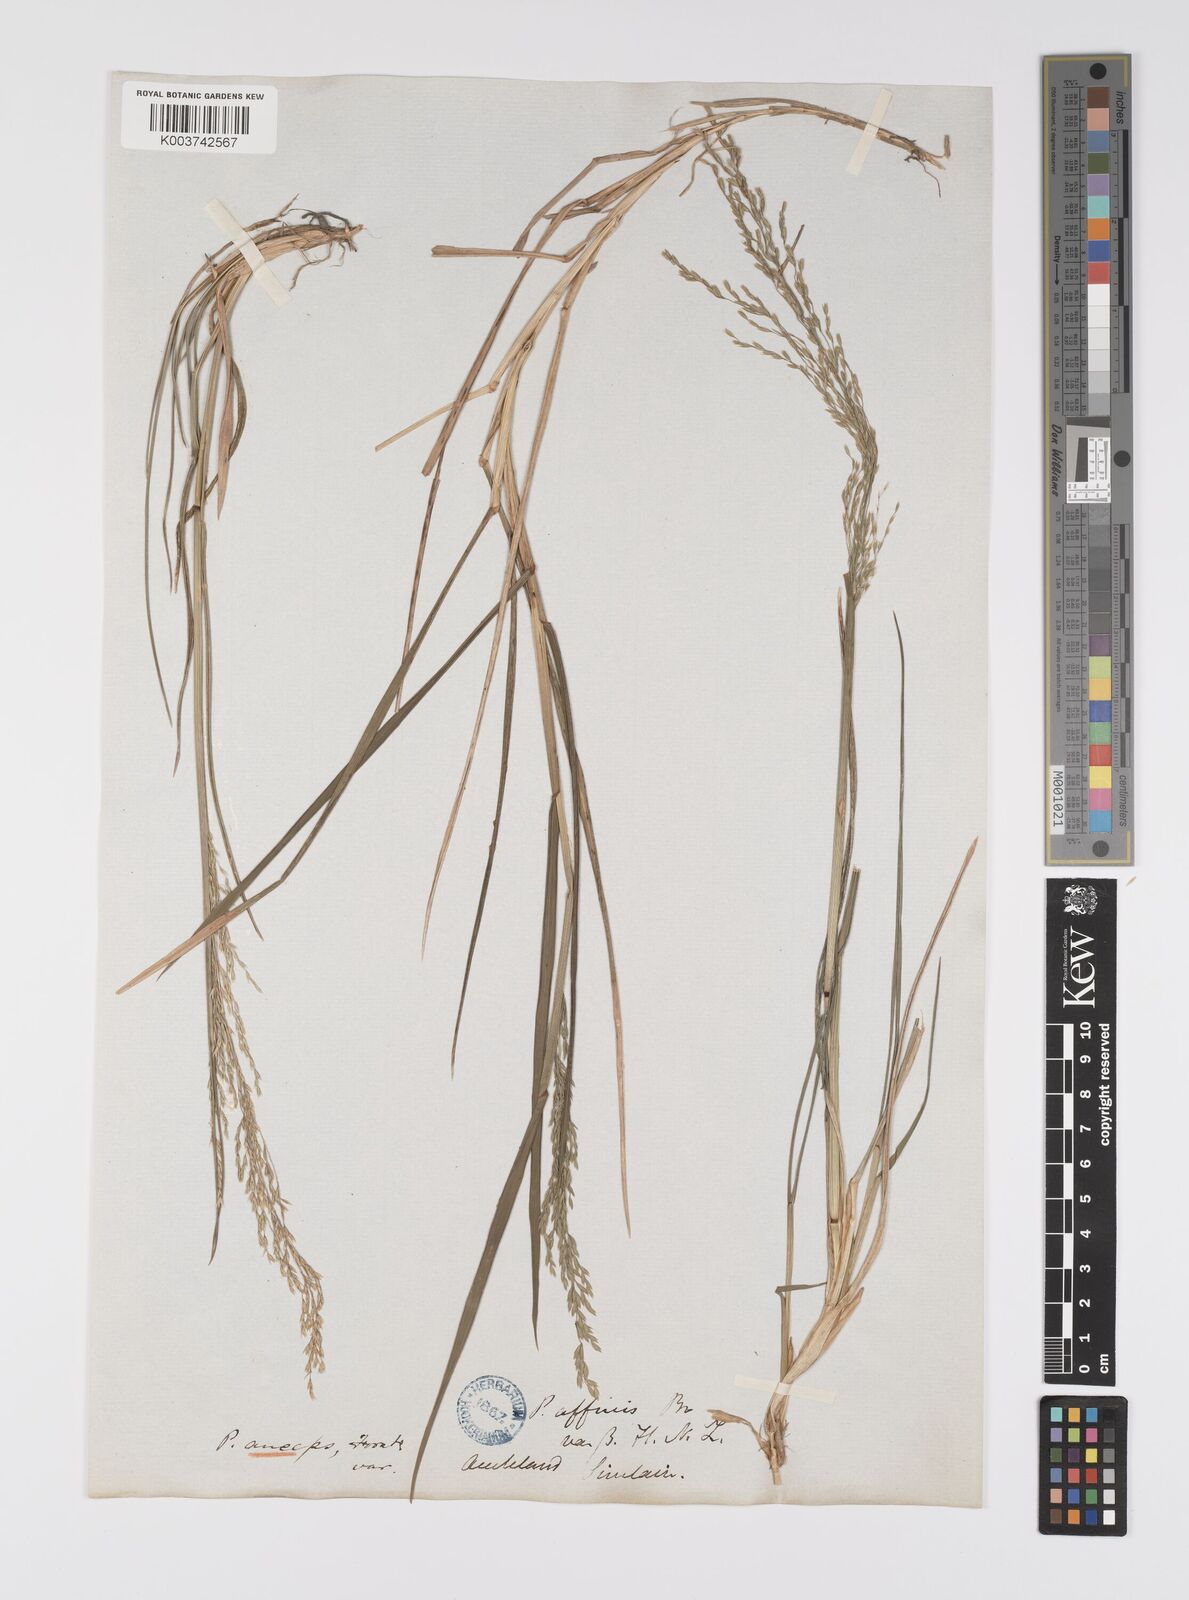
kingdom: Plantae
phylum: Tracheophyta
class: Liliopsida
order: Poales
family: Poaceae
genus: Poa
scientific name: Poa anceps
